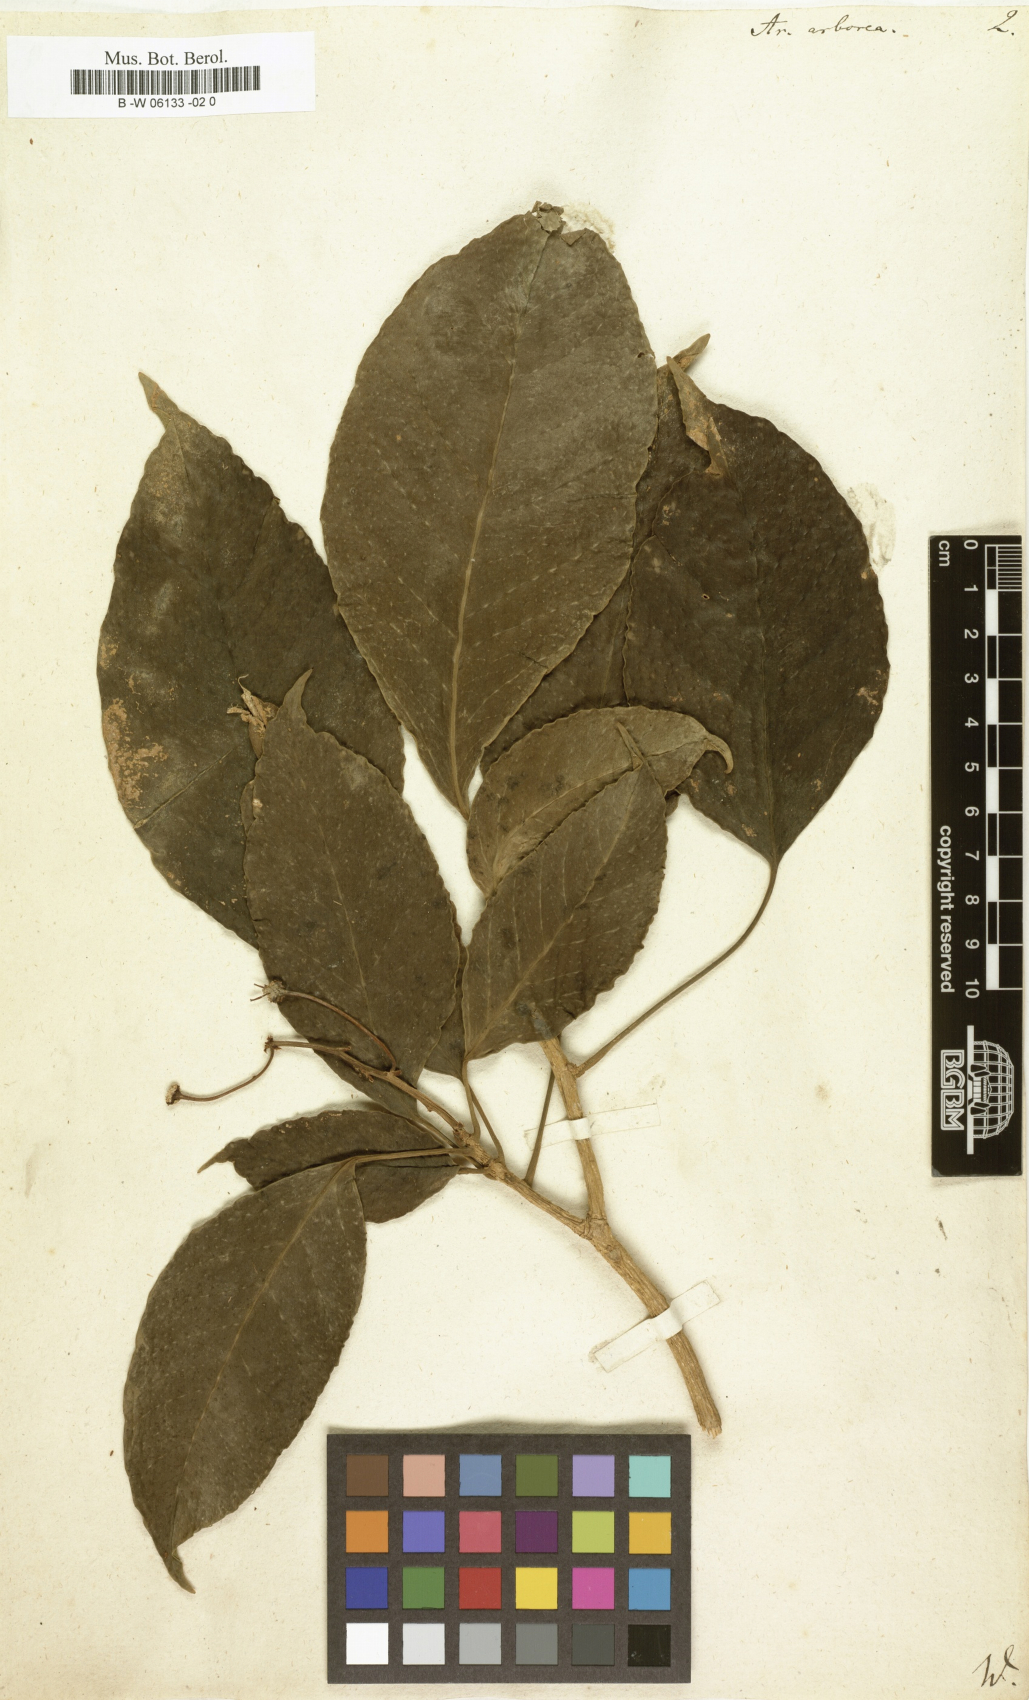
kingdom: Plantae
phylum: Tracheophyta
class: Magnoliopsida
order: Apiales
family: Araliaceae
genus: Dendropanax
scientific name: Dendropanax arboreus
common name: Potato-wood
